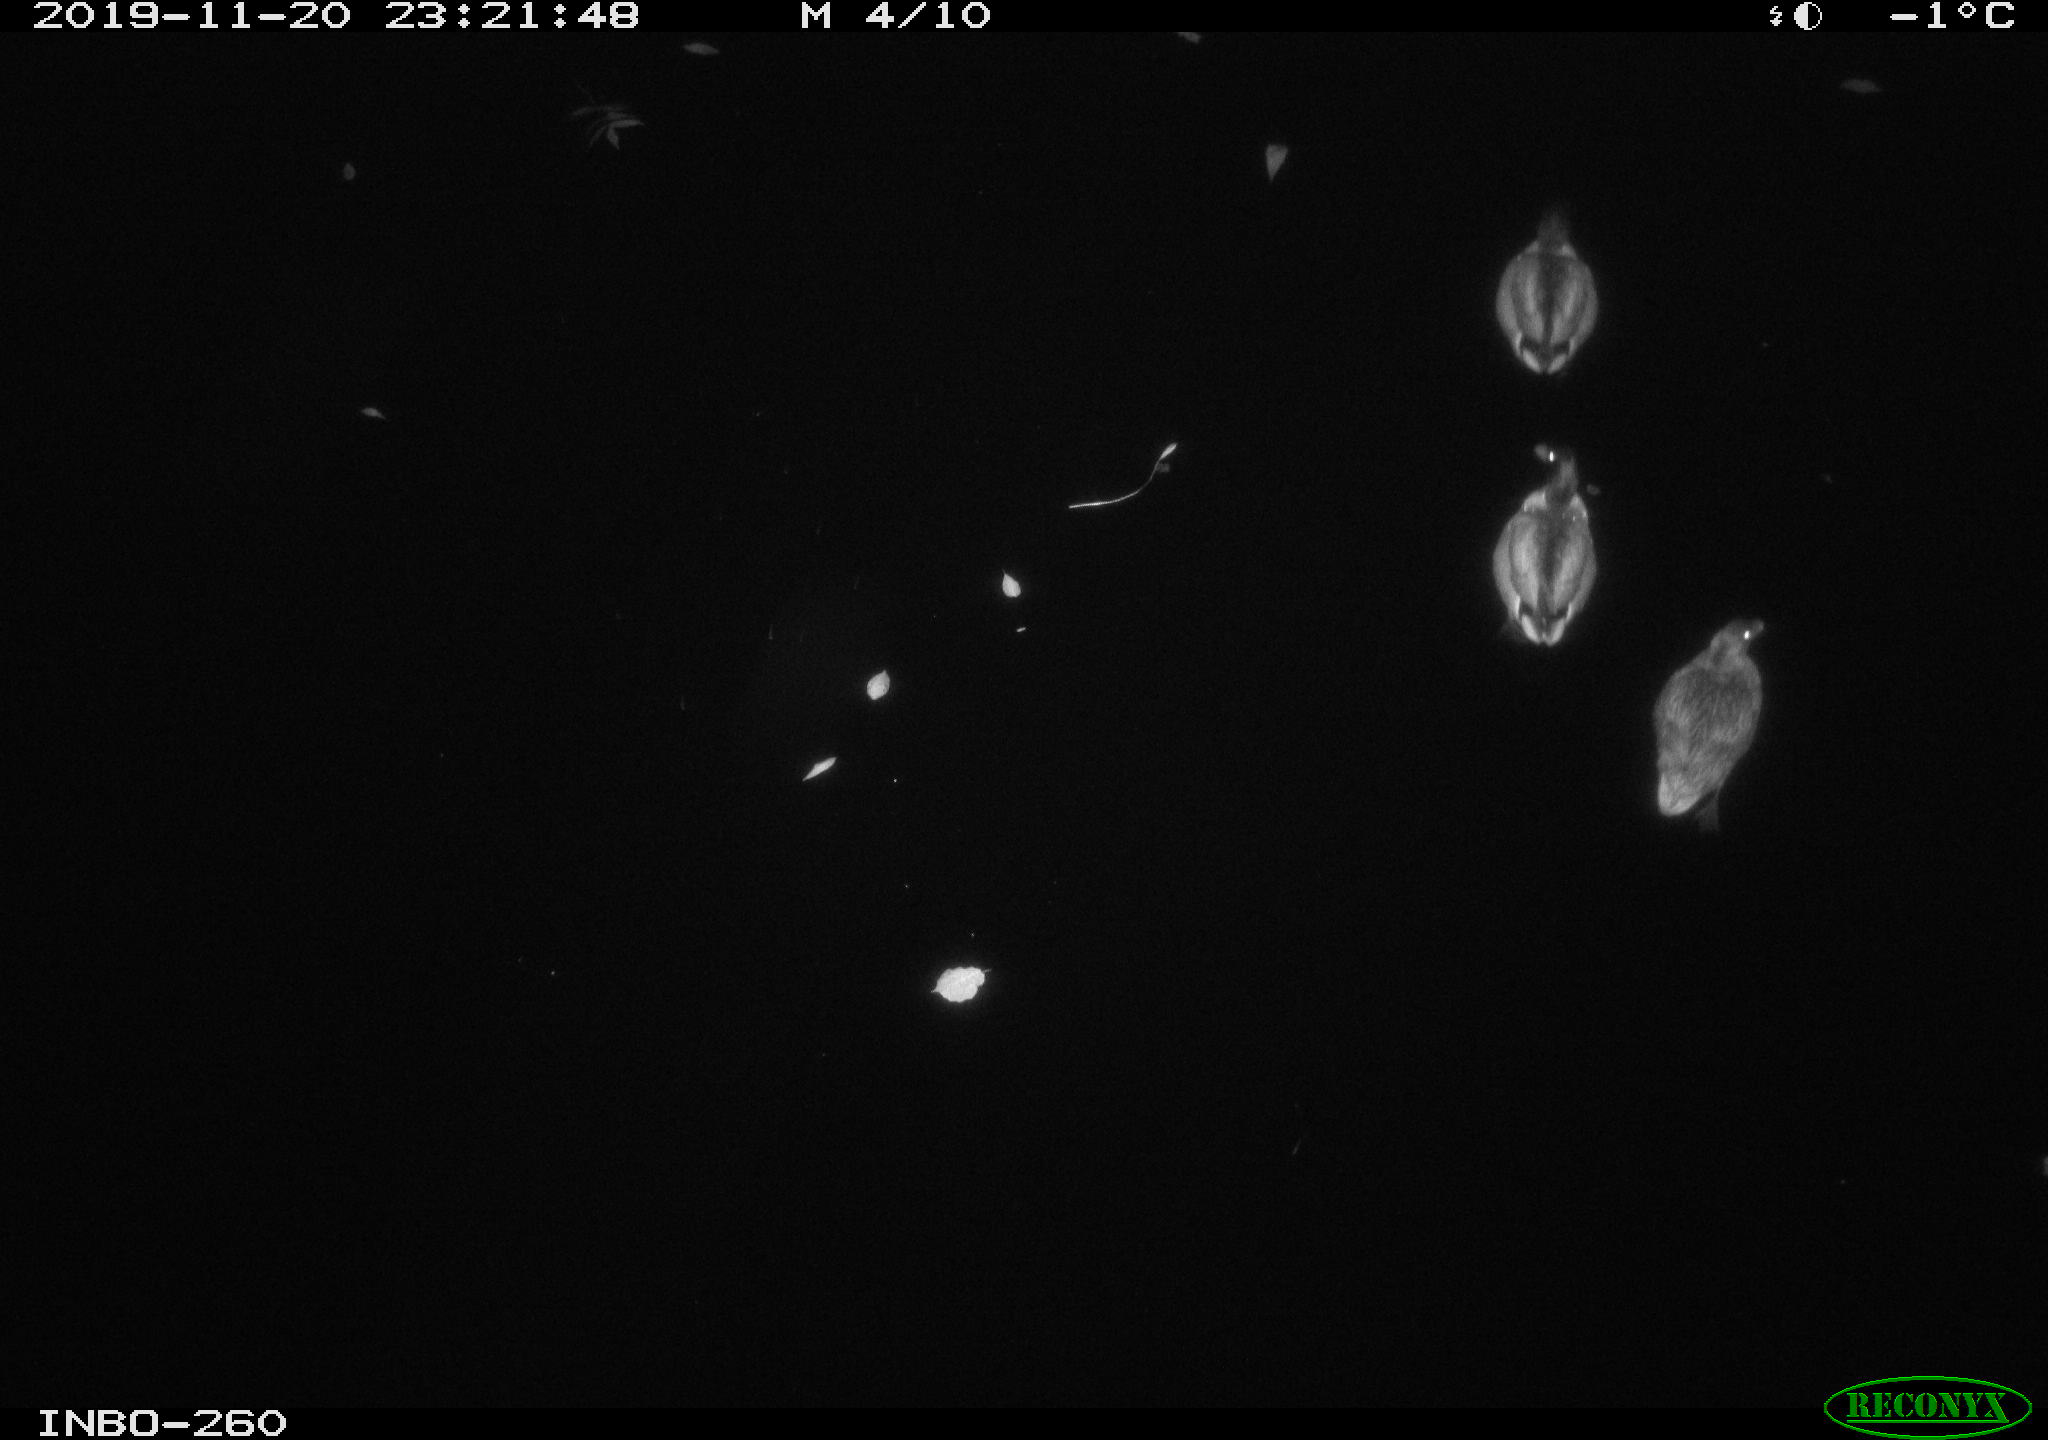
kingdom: Animalia
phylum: Chordata
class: Aves
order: Anseriformes
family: Anatidae
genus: Anas
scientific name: Anas platyrhynchos
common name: Mallard
